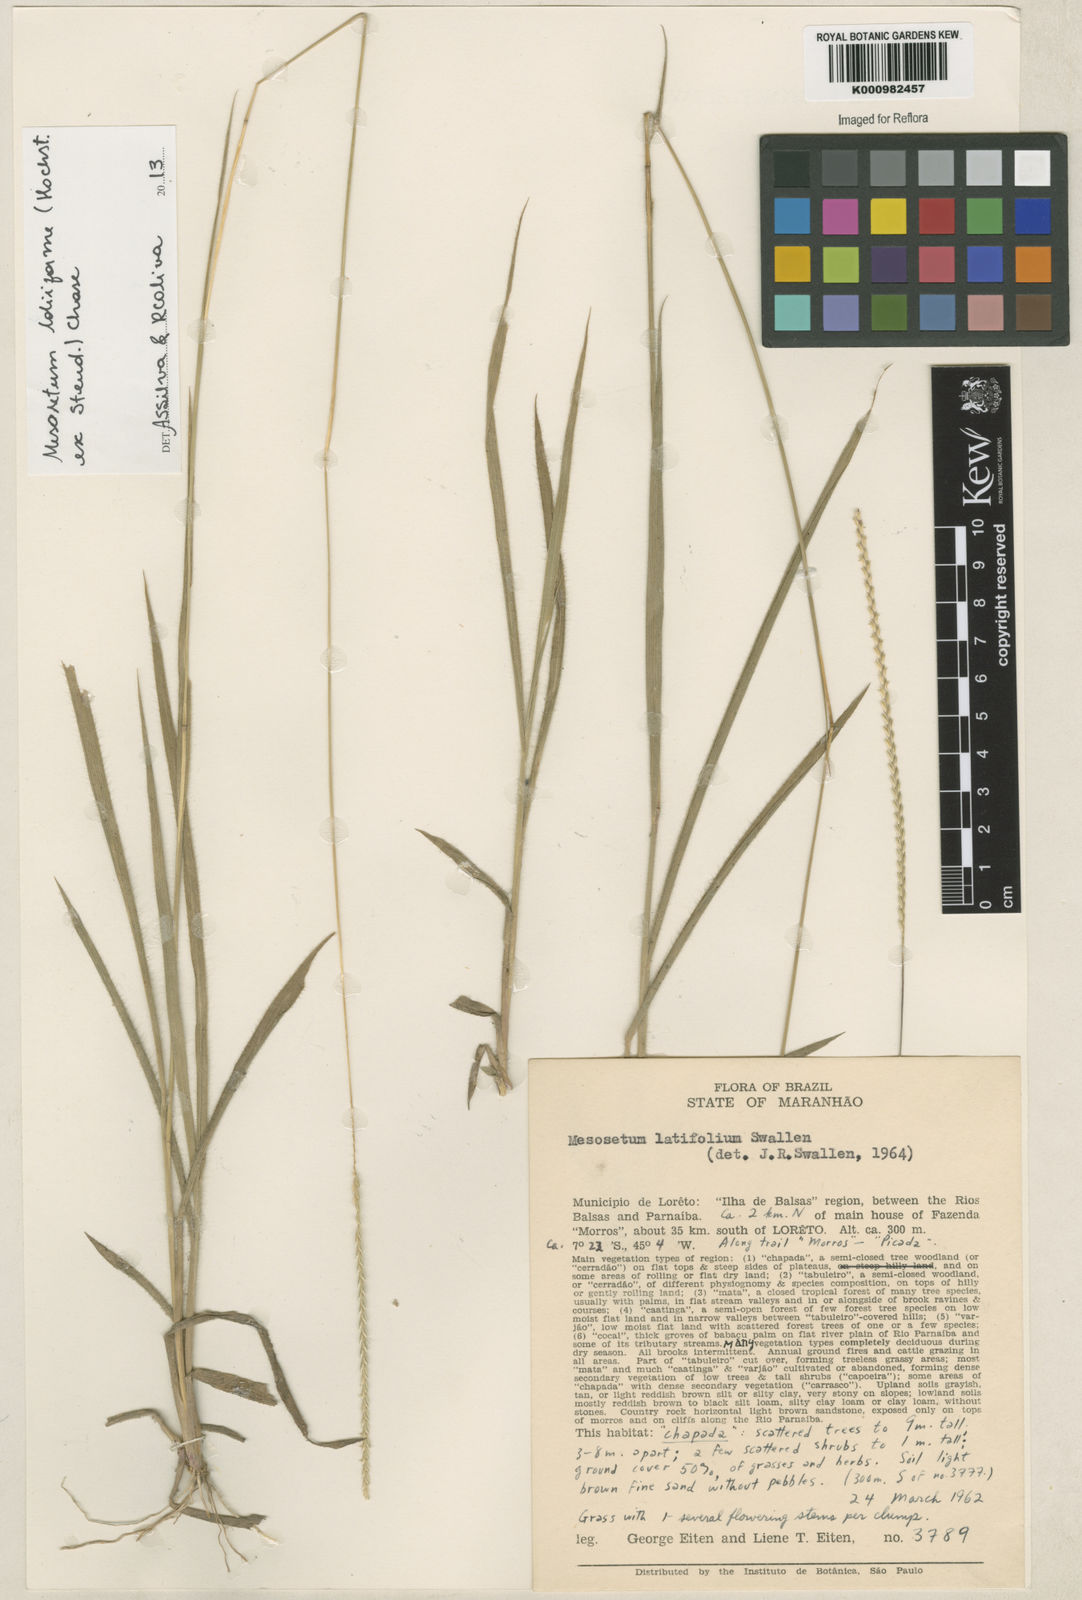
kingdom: Plantae
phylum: Tracheophyta
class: Liliopsida
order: Poales
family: Poaceae
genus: Mesosetum
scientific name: Mesosetum
